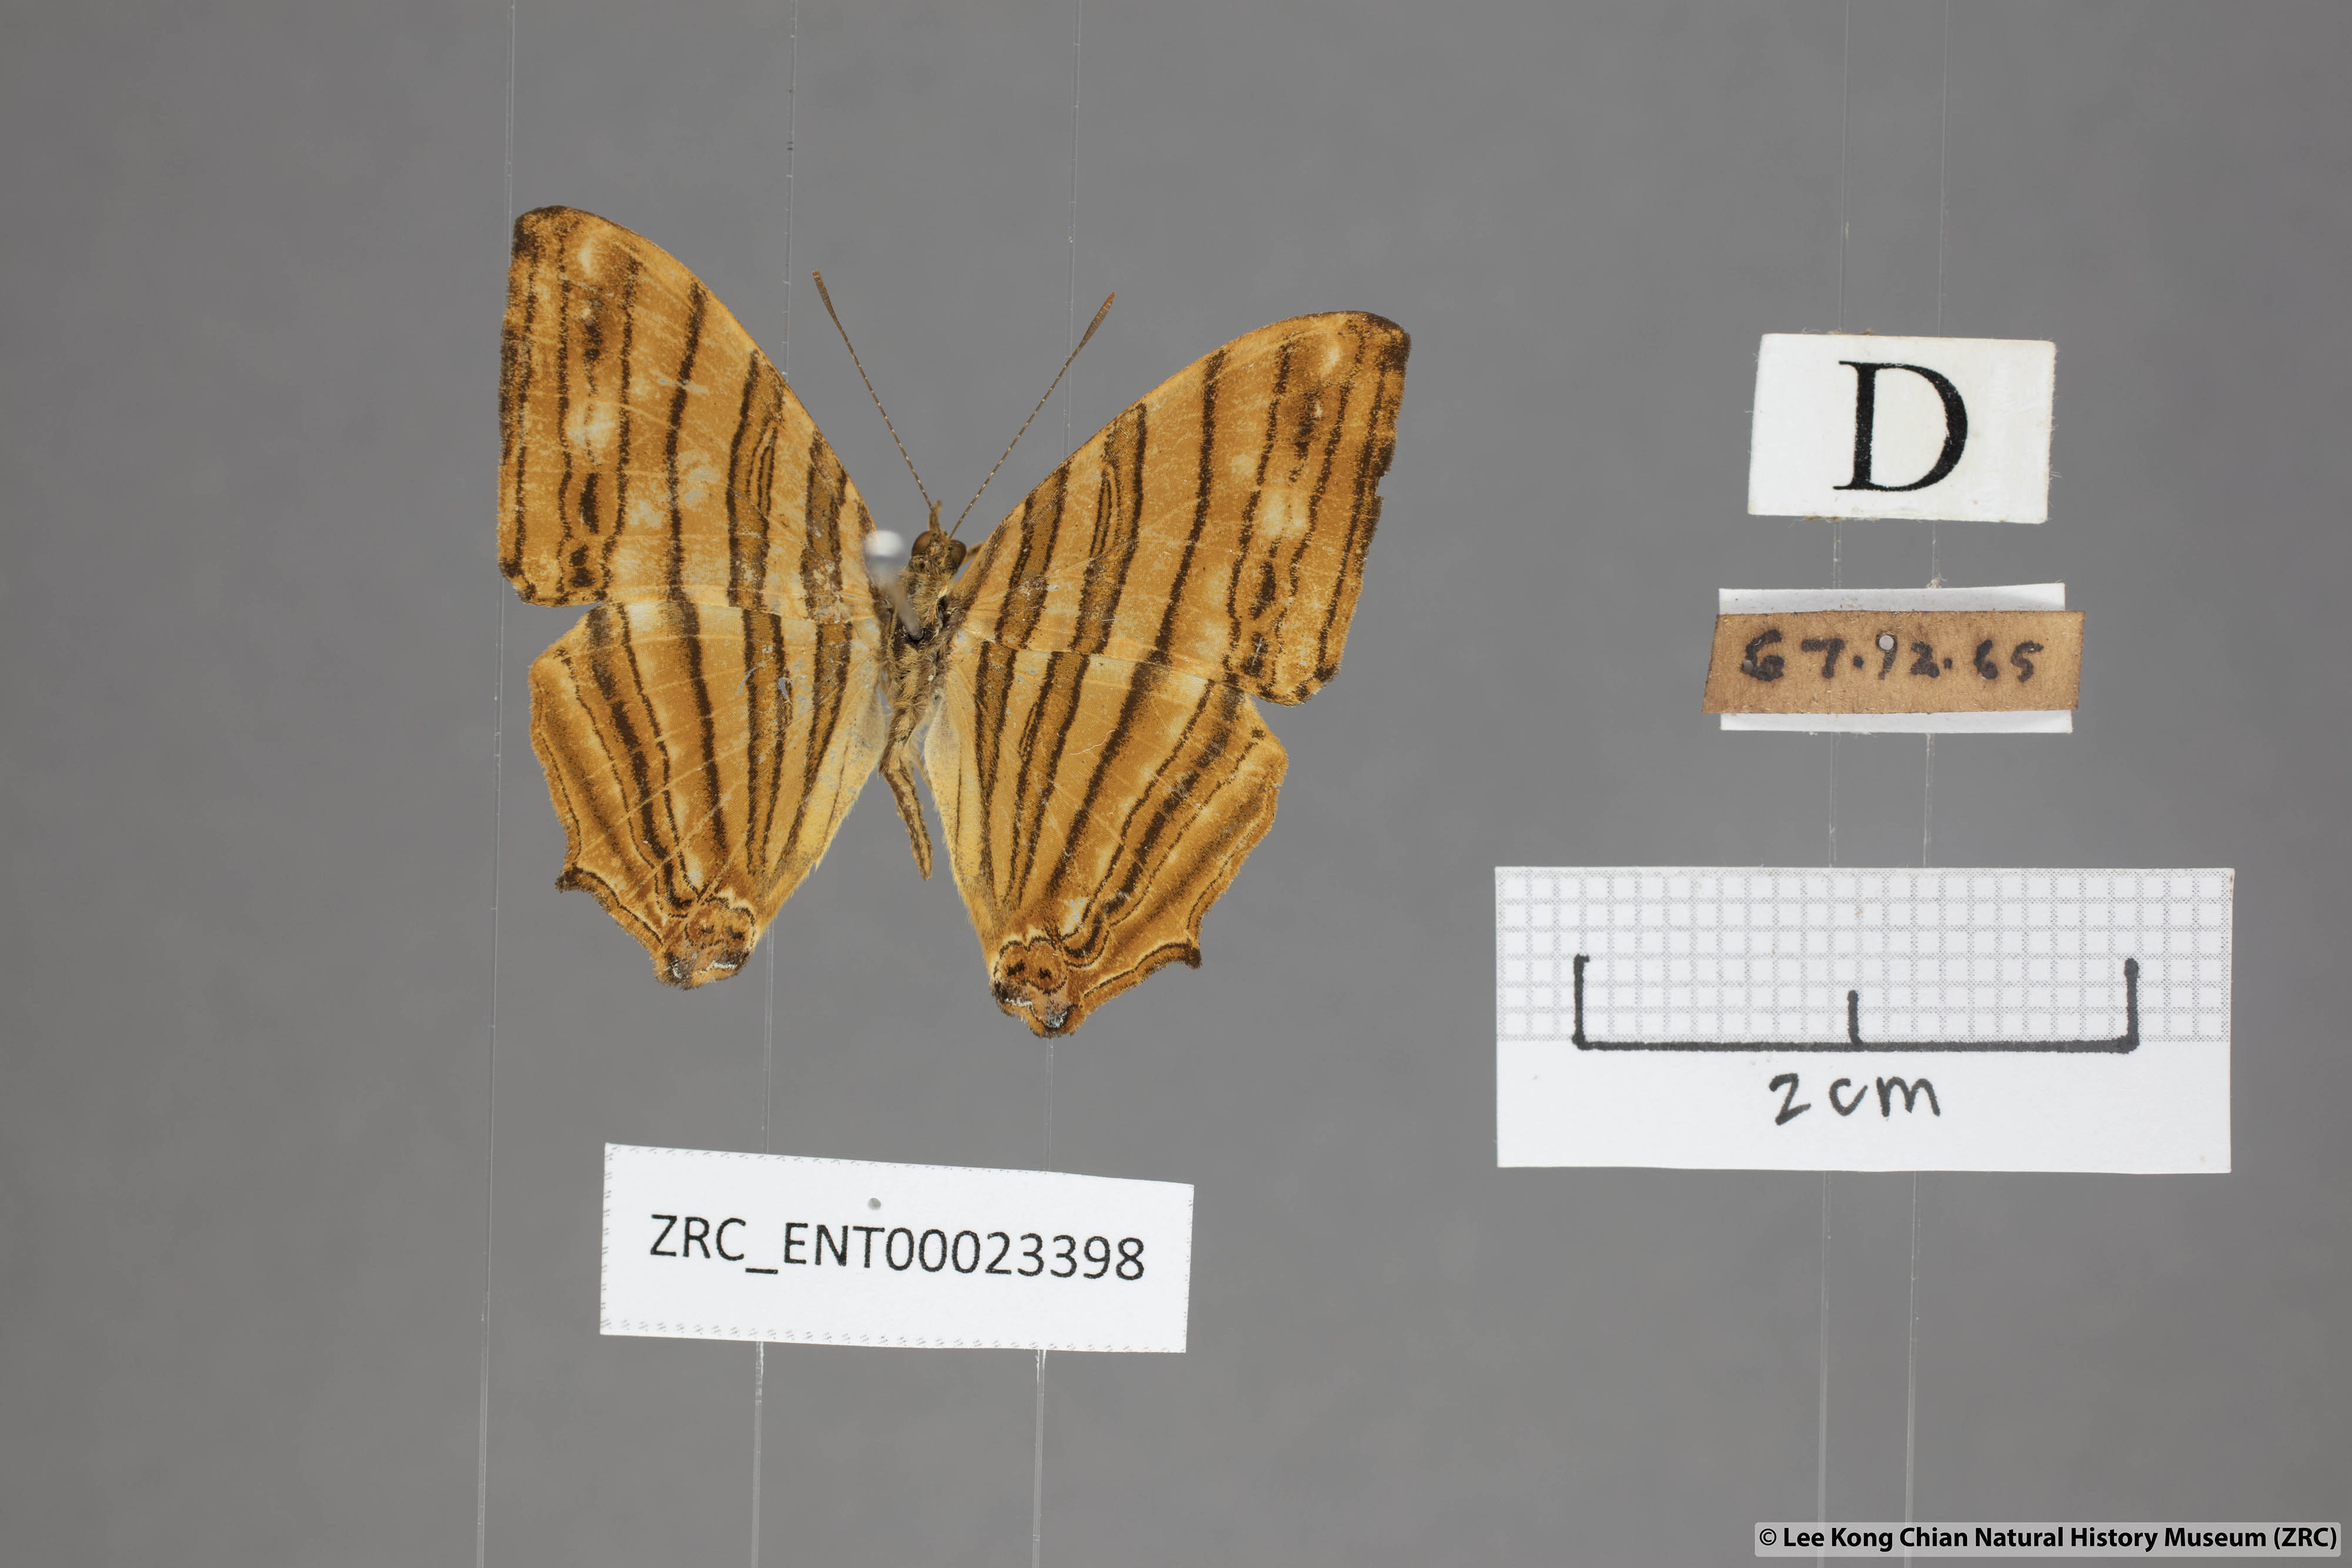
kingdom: Animalia
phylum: Arthropoda
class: Insecta
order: Lepidoptera
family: Nymphalidae
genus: Chersonesia
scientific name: Chersonesia risa
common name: Common maplet
